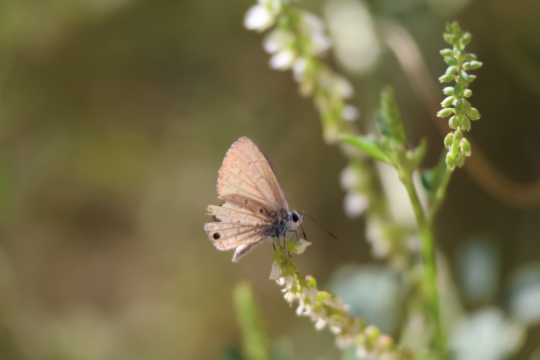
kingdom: Animalia
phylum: Arthropoda
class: Insecta
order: Lepidoptera
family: Lycaenidae
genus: Echinargus
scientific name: Echinargus isola
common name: Reakirt's Blue
